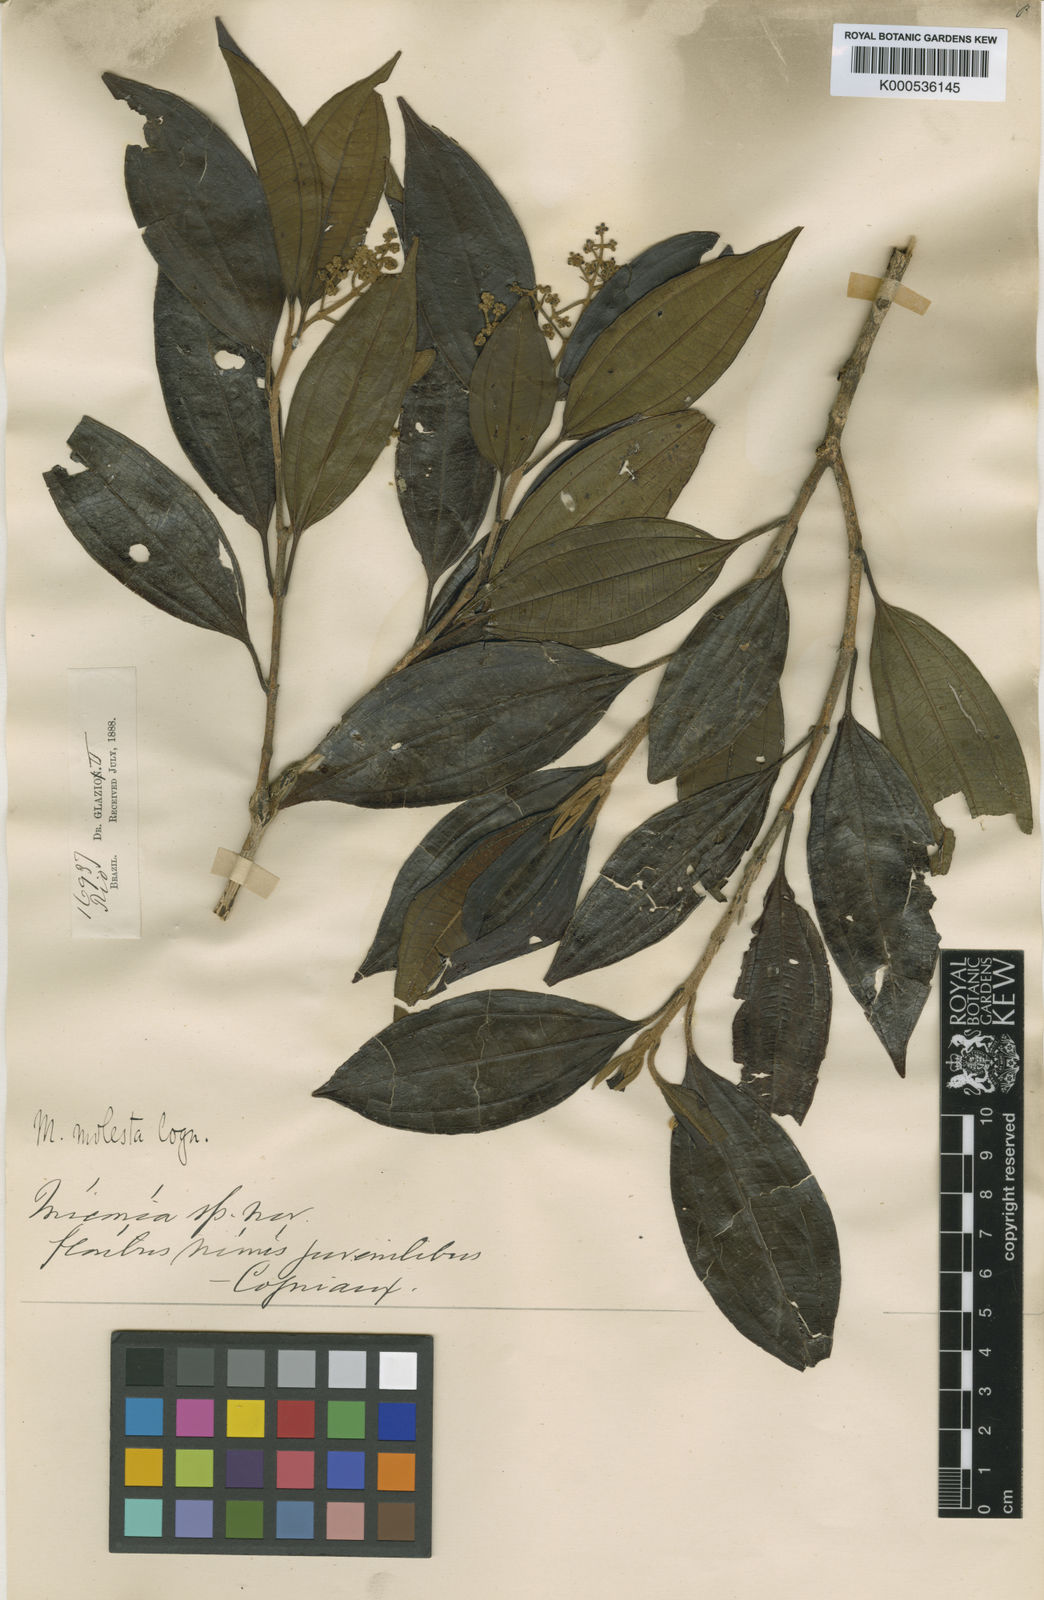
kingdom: Plantae
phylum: Tracheophyta
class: Magnoliopsida
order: Myrtales
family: Melastomataceae
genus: Miconia
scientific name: Miconia molesta
